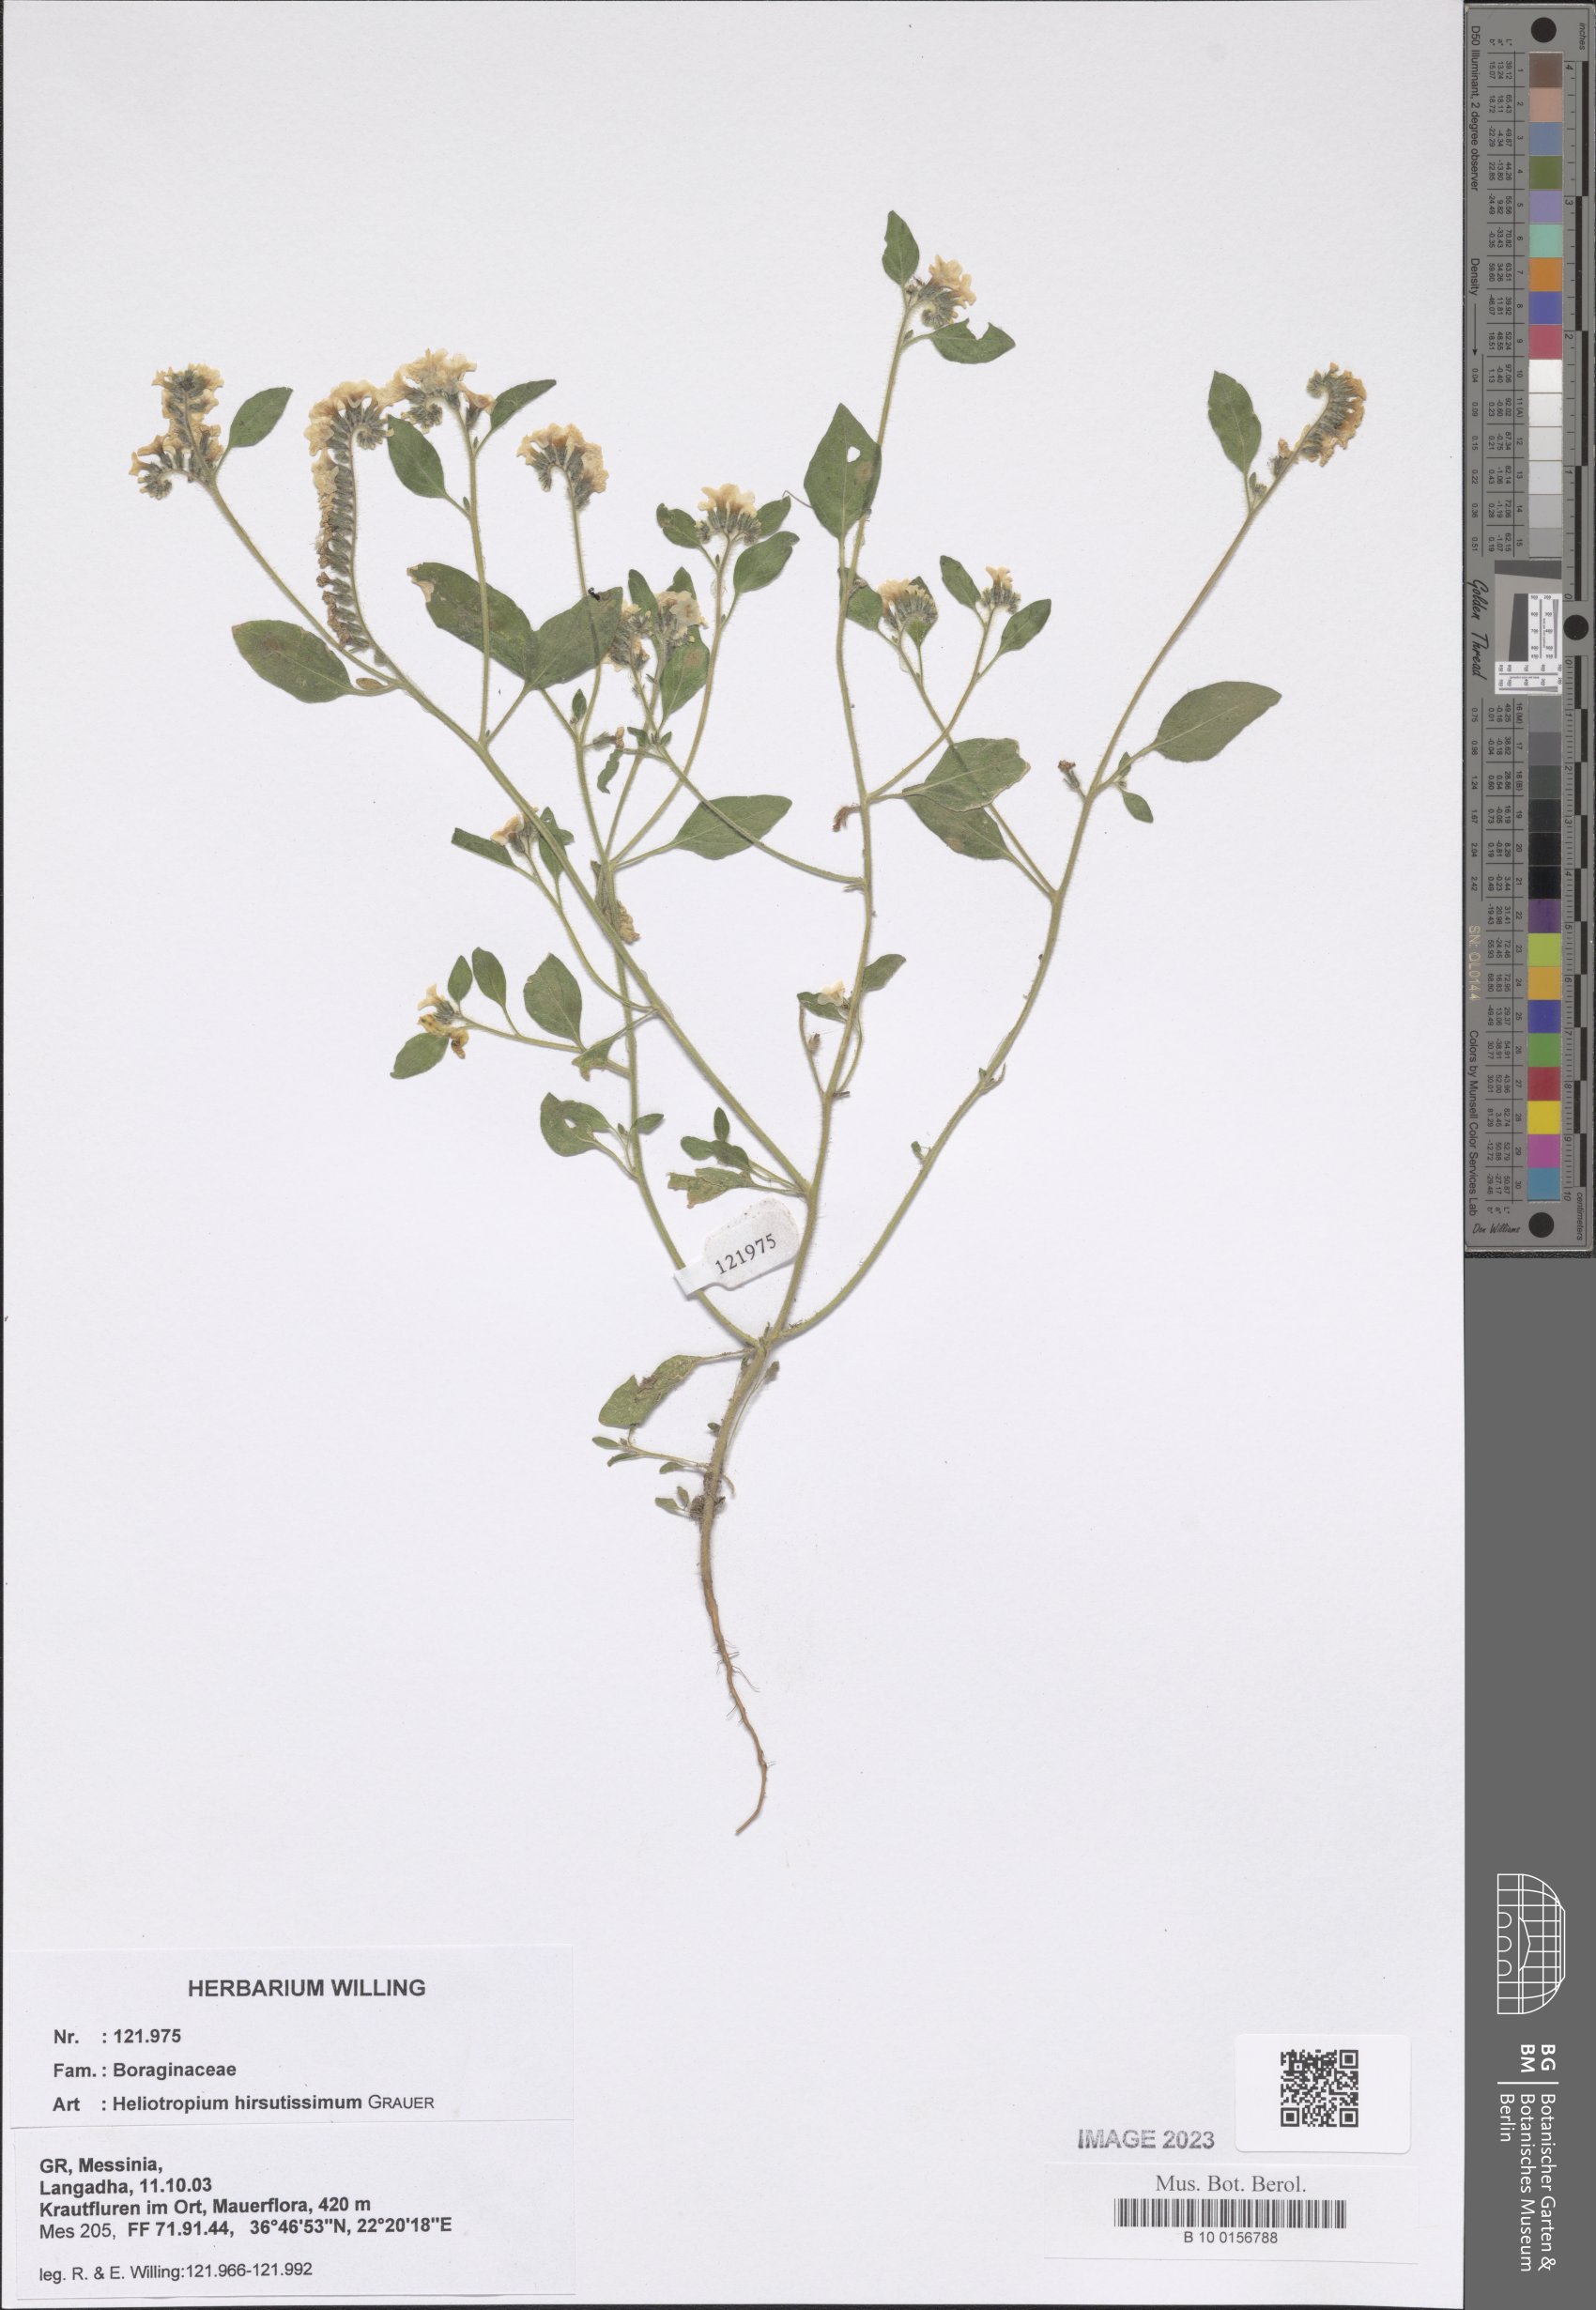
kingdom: Plantae
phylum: Tracheophyta
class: Magnoliopsida
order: Boraginales
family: Heliotropiaceae
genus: Heliotropium
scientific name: Heliotropium hirsutissimum
